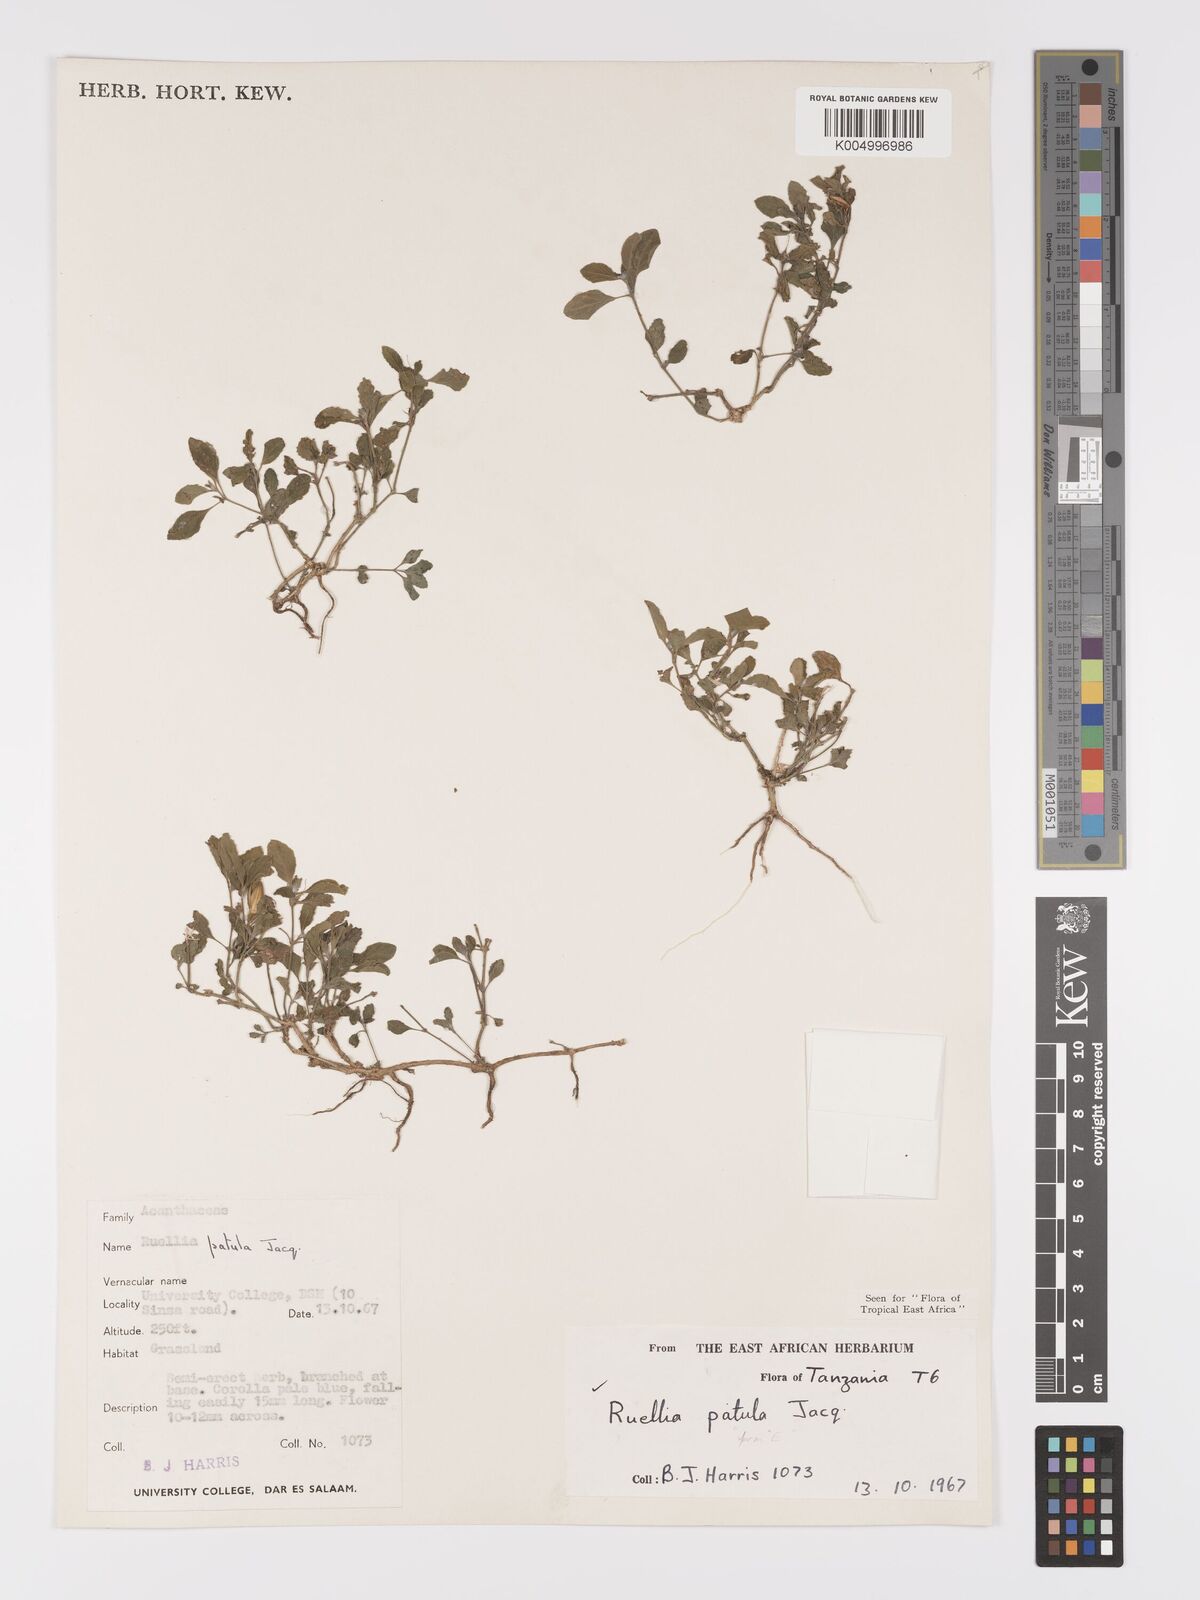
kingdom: Plantae
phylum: Tracheophyta
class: Magnoliopsida
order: Lamiales
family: Acanthaceae
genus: Ruellia
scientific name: Ruellia patula
